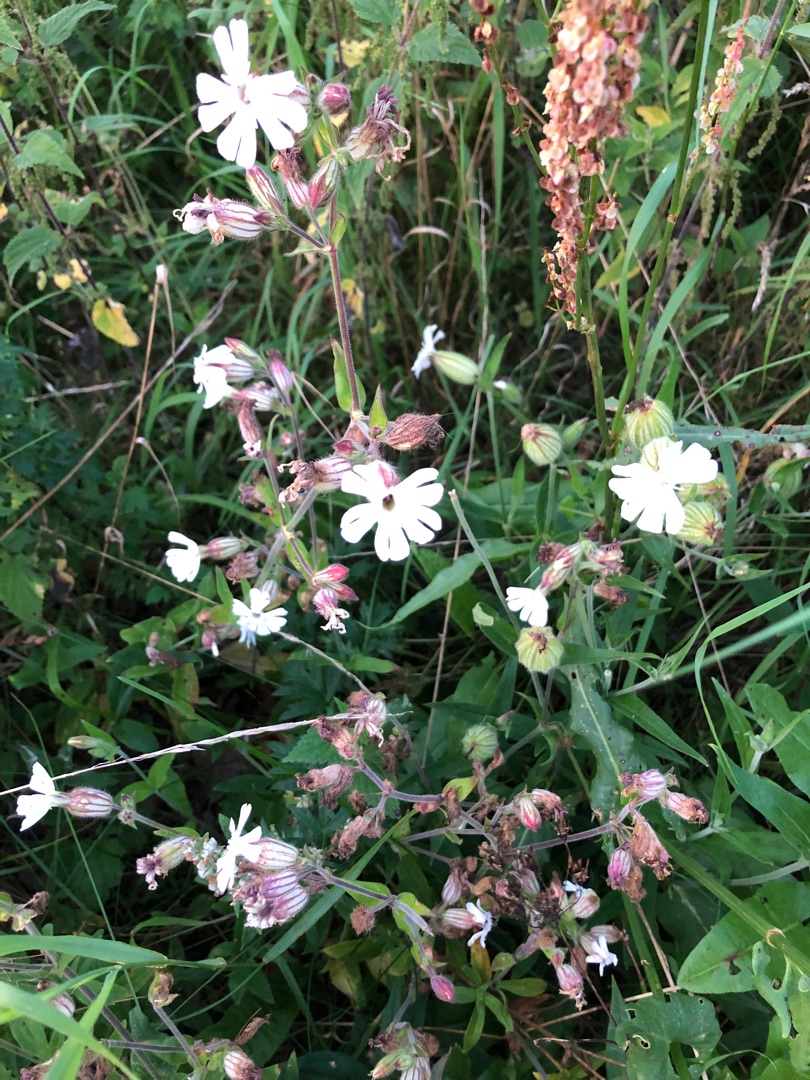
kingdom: Plantae
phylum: Tracheophyta
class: Magnoliopsida
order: Caryophyllales
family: Caryophyllaceae
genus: Silene
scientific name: Silene latifolia
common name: Aftenpragtstjerne
